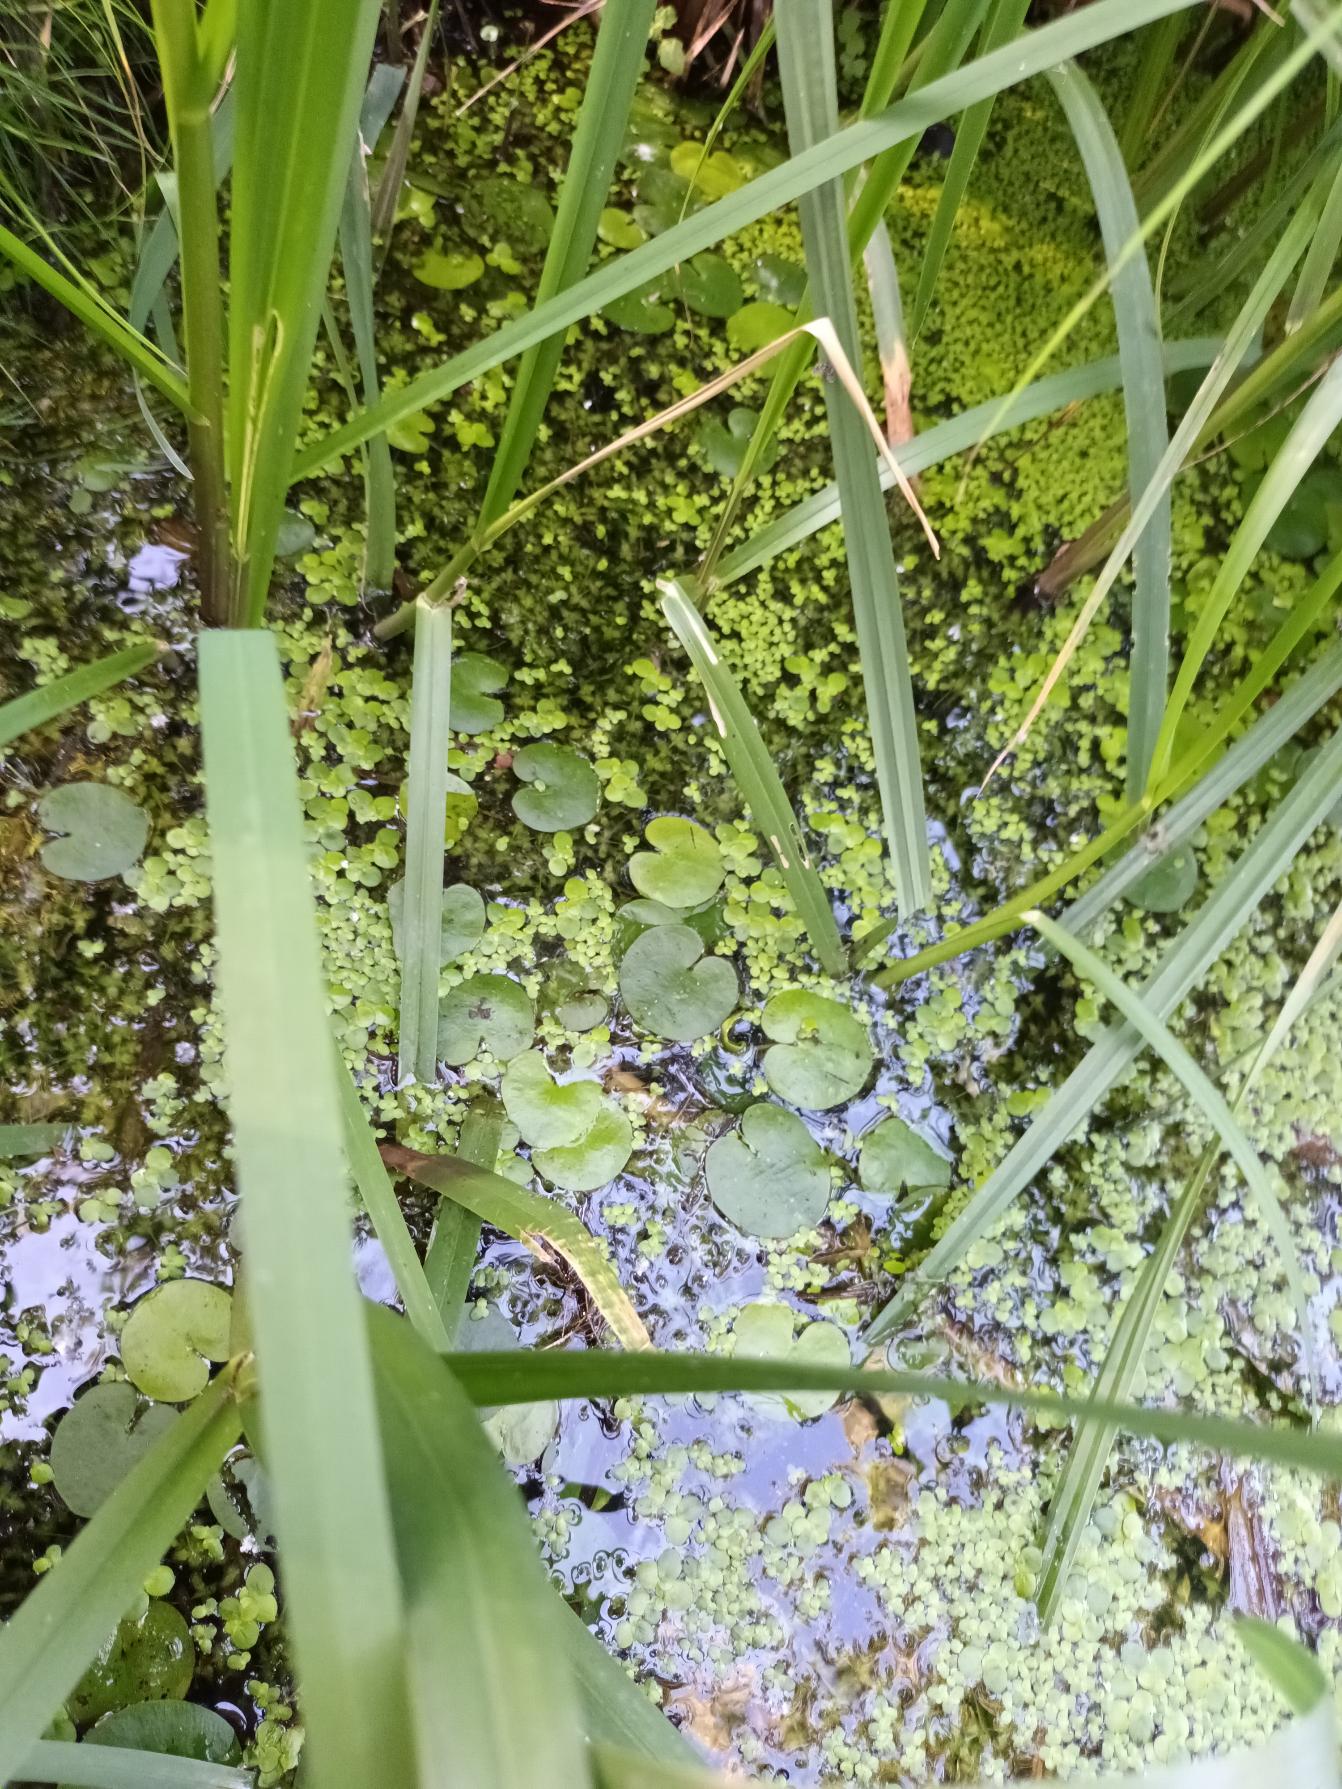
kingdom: Plantae
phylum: Tracheophyta
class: Liliopsida
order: Alismatales
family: Hydrocharitaceae
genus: Hydrocharis
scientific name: Hydrocharis morsus-ranae
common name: Frøbid
